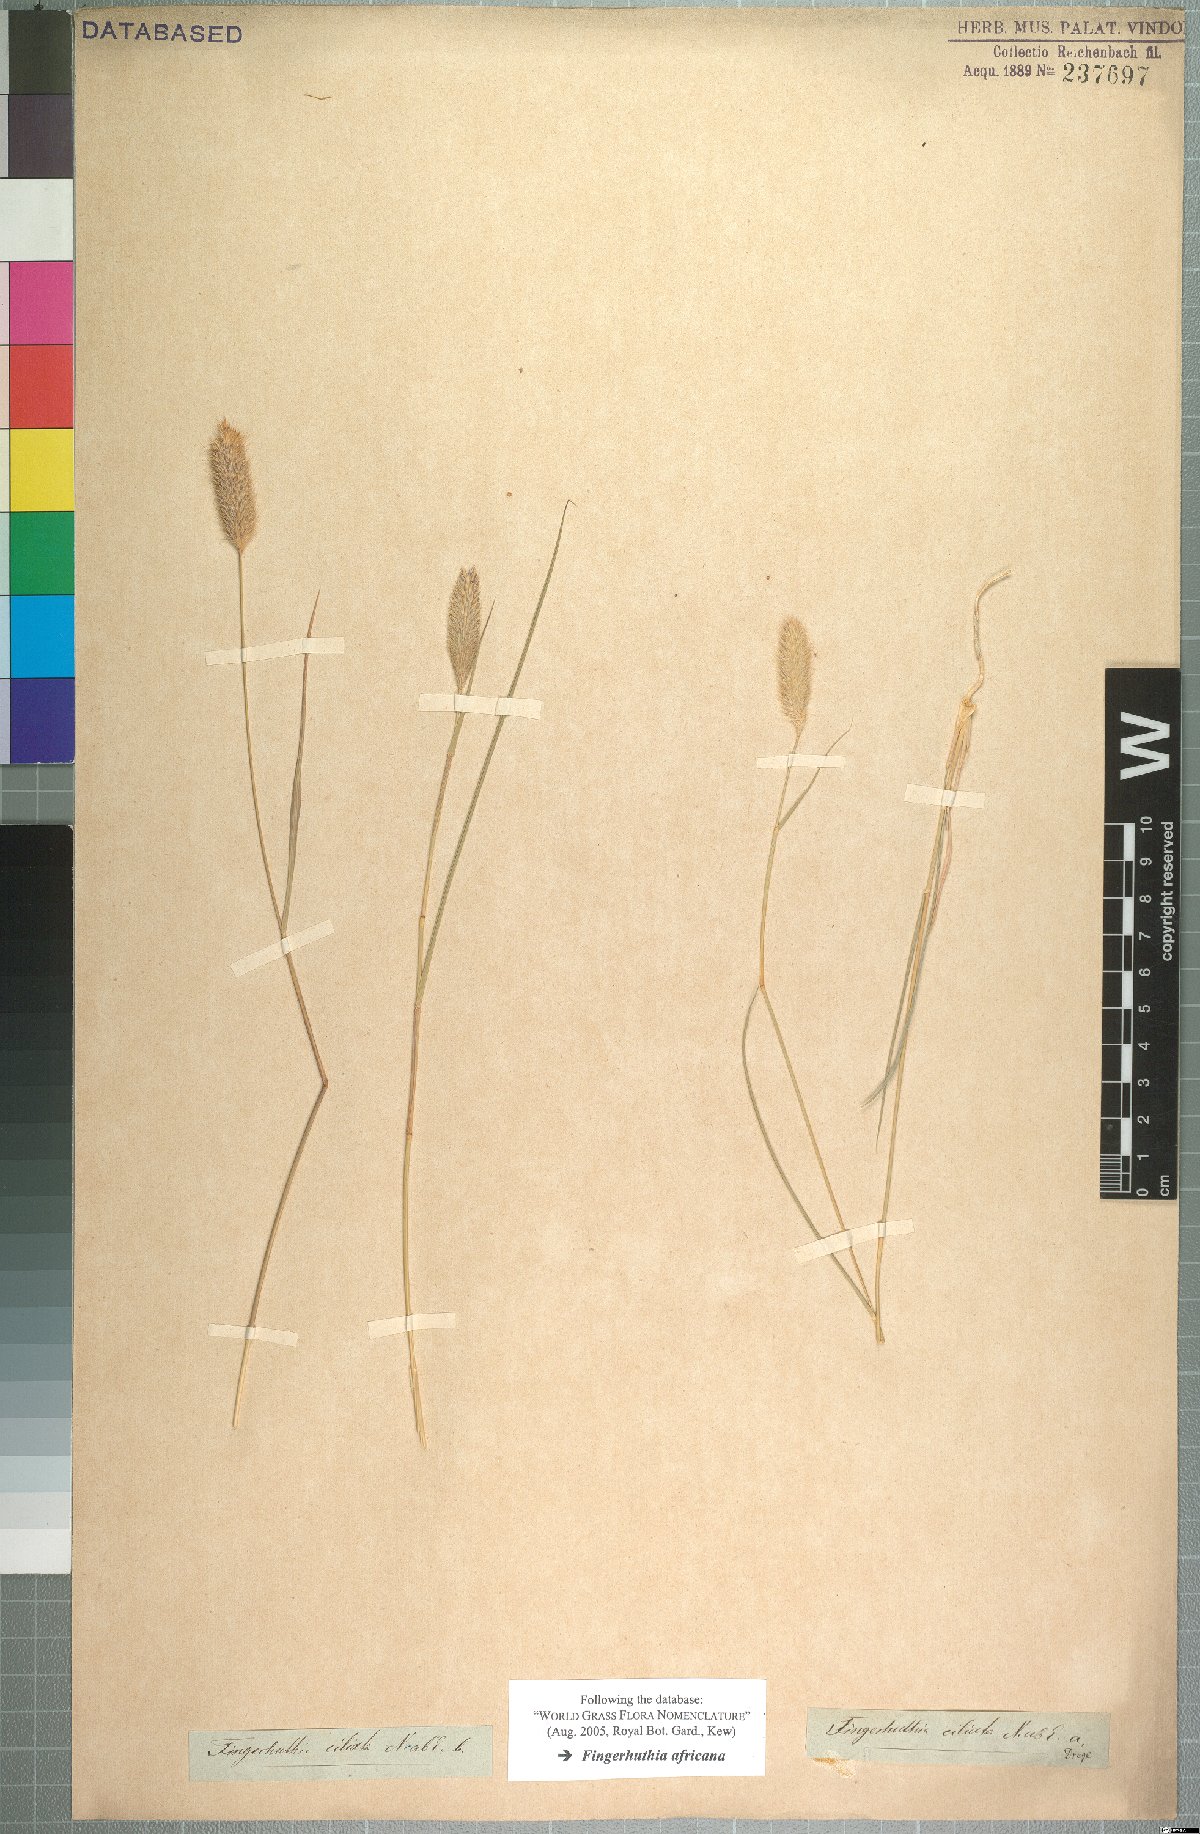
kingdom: Plantae
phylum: Tracheophyta
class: Liliopsida
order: Poales
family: Poaceae
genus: Fingerhuthia
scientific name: Fingerhuthia africana
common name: Zulu fescue
